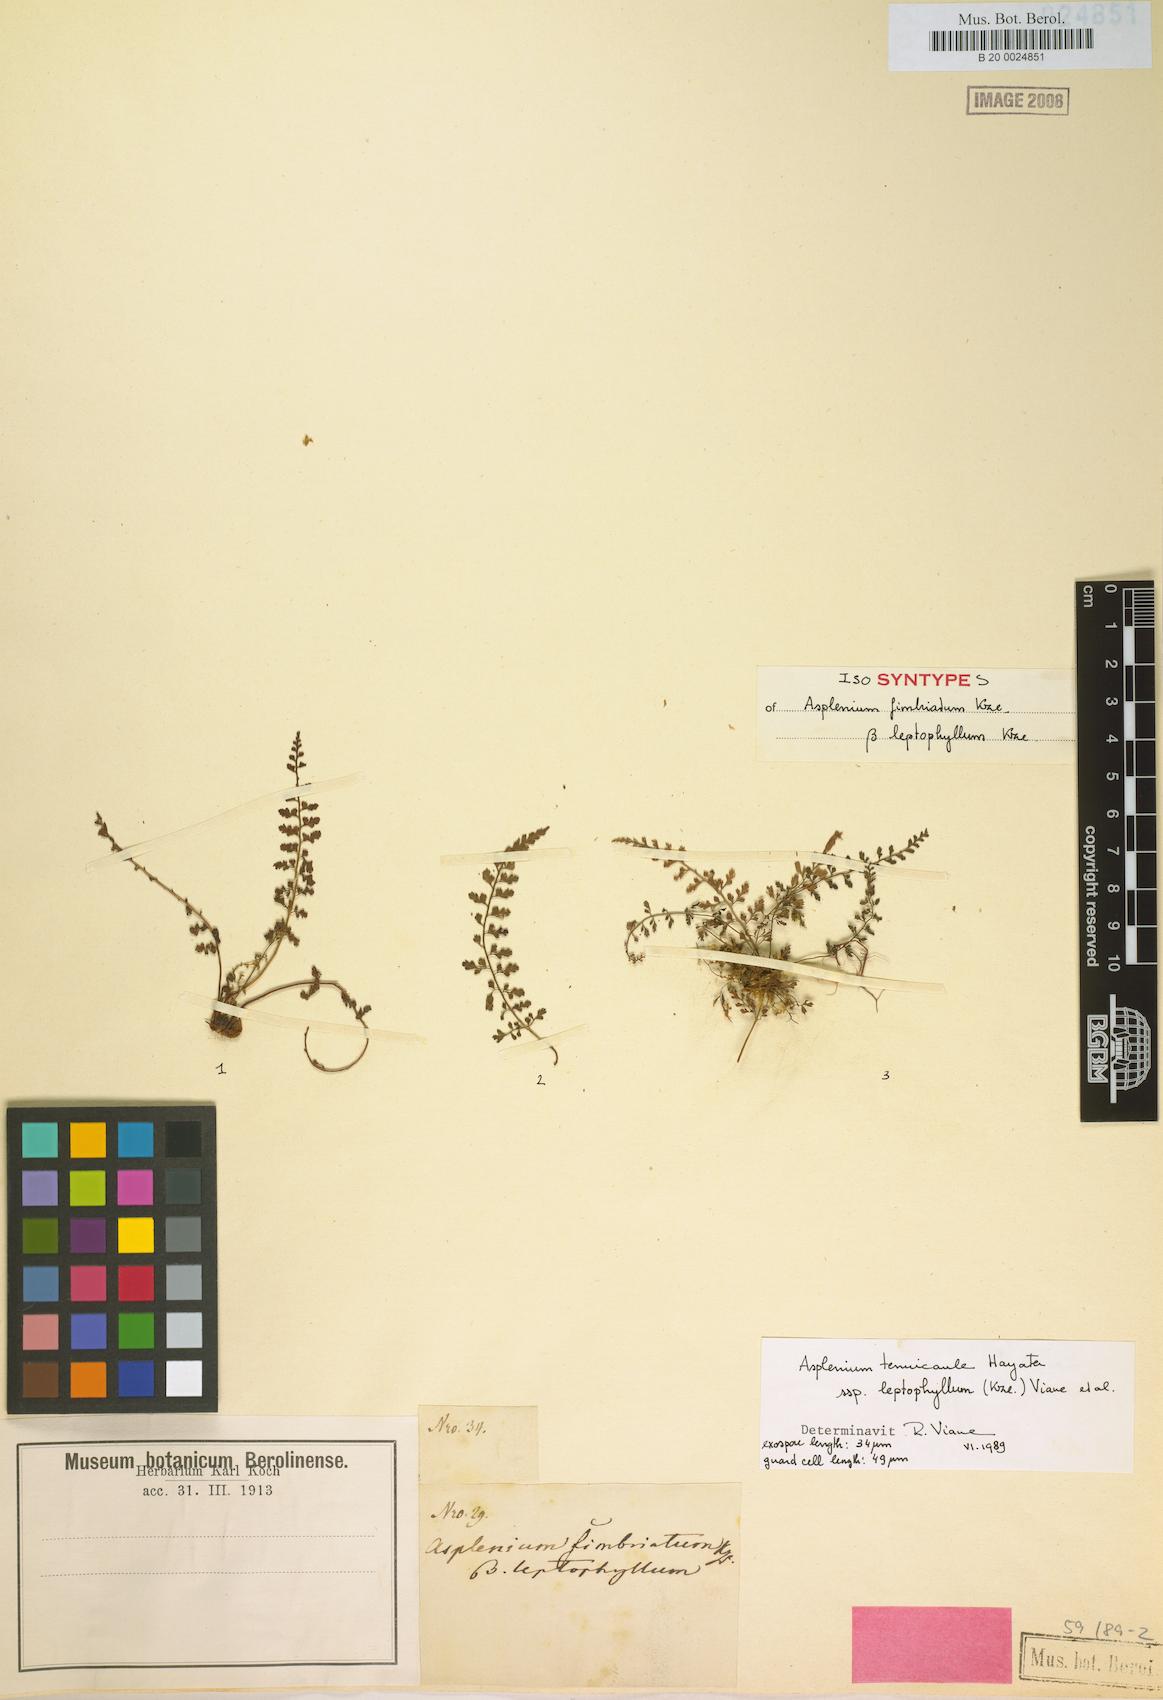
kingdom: Plantae
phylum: Tracheophyta
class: Polypodiopsida
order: Polypodiales
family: Aspleniaceae
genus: Asplenium
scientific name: Asplenium laciniatum
